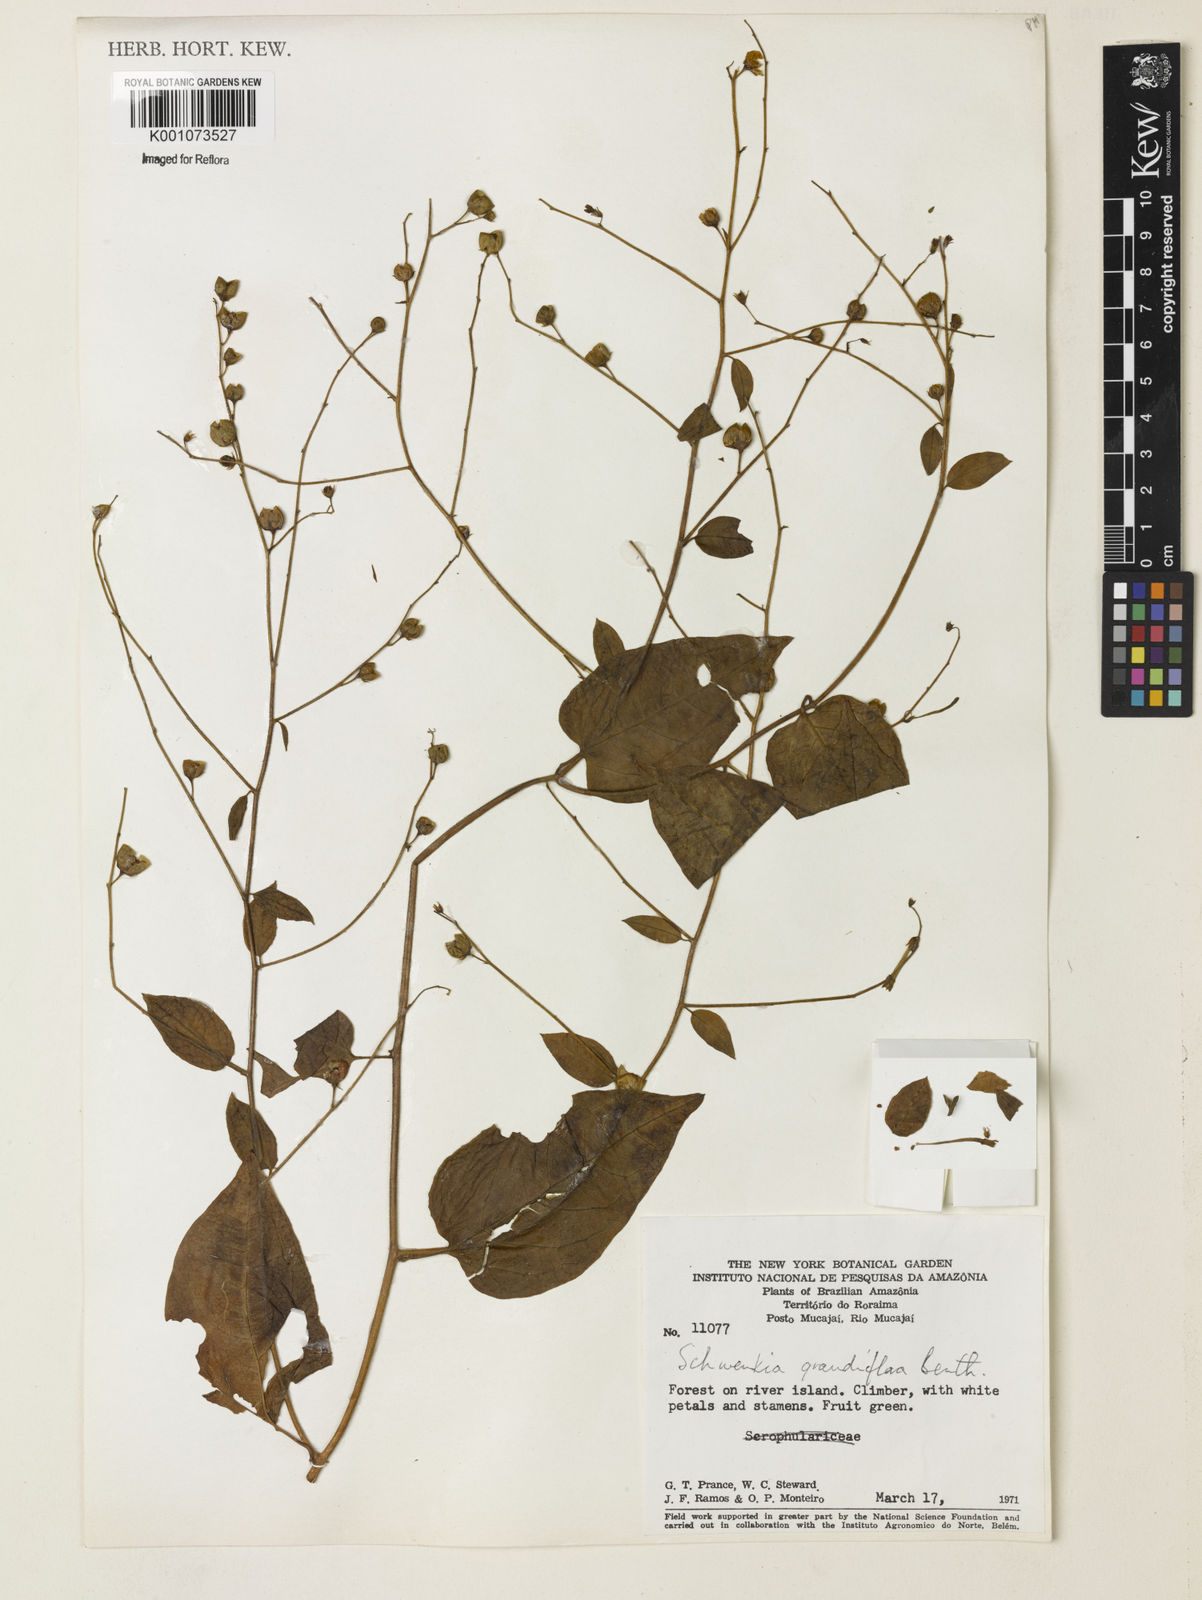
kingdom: Plantae
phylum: Tracheophyta
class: Magnoliopsida
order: Solanales
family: Solanaceae
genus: Schwenckia
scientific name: Schwenckia grandiflora
